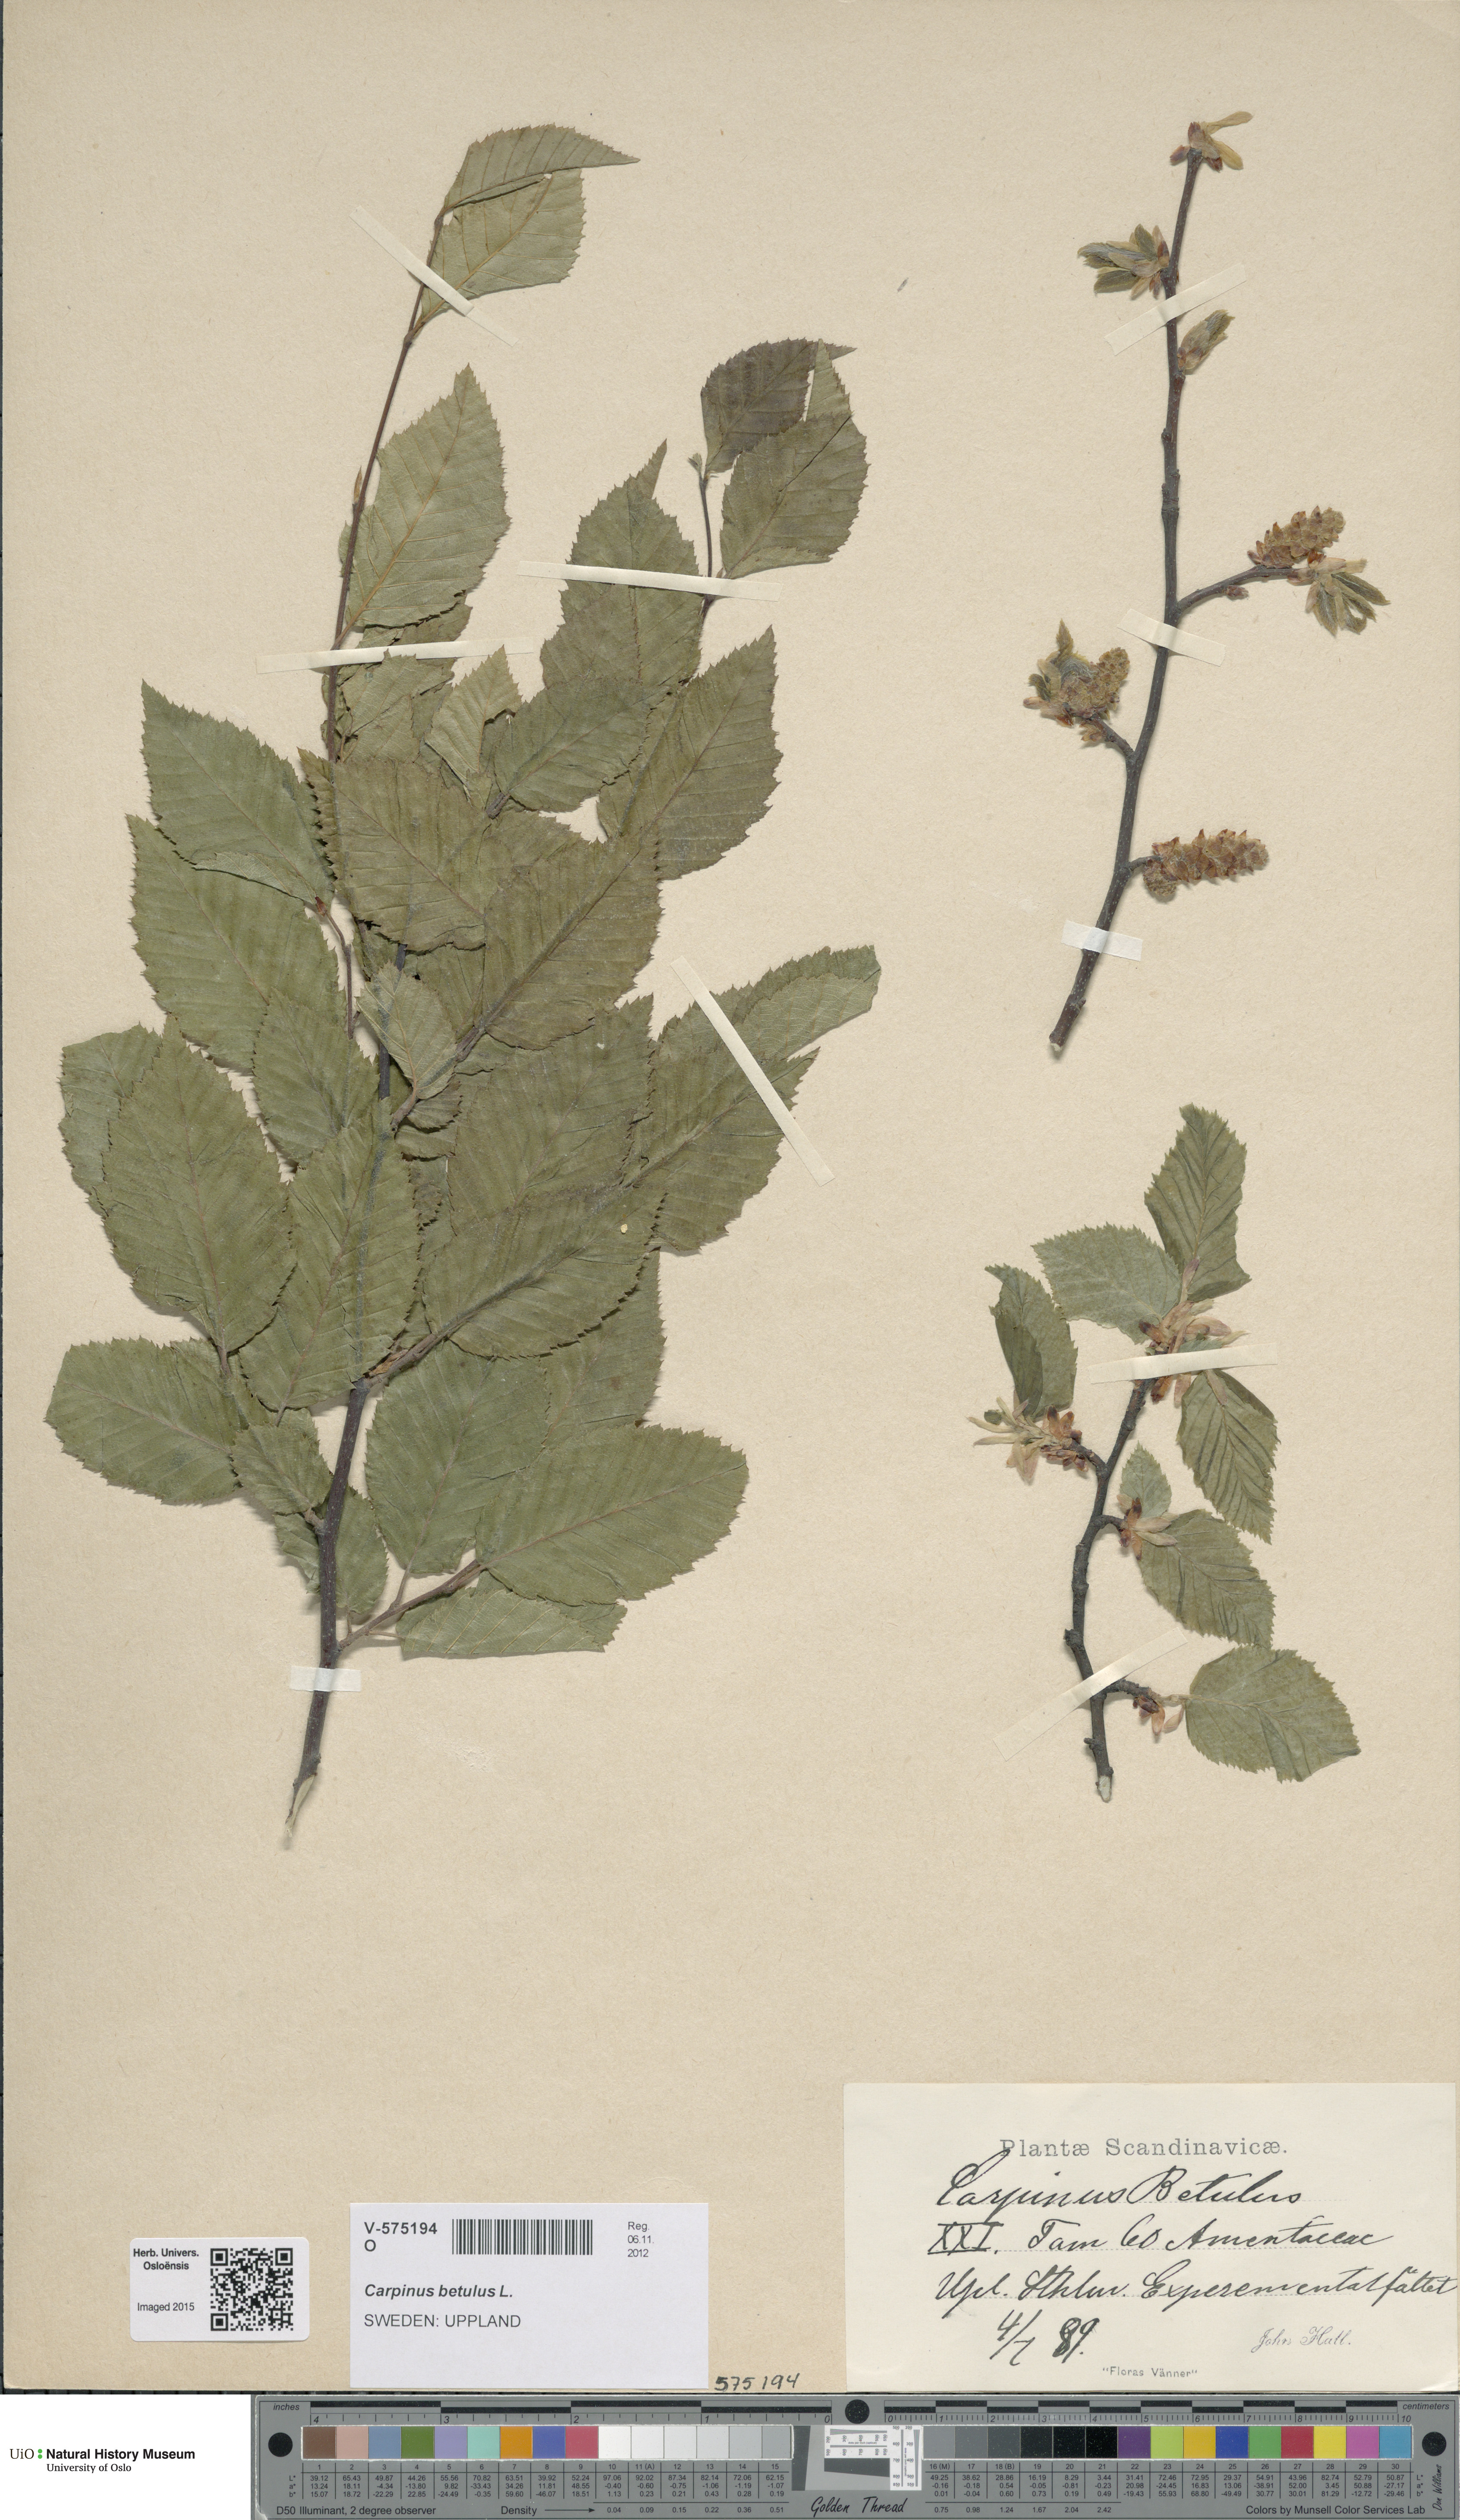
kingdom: Plantae
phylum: Tracheophyta
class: Magnoliopsida
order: Fagales
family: Betulaceae
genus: Carpinus
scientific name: Carpinus betulus
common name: Hornbeam
